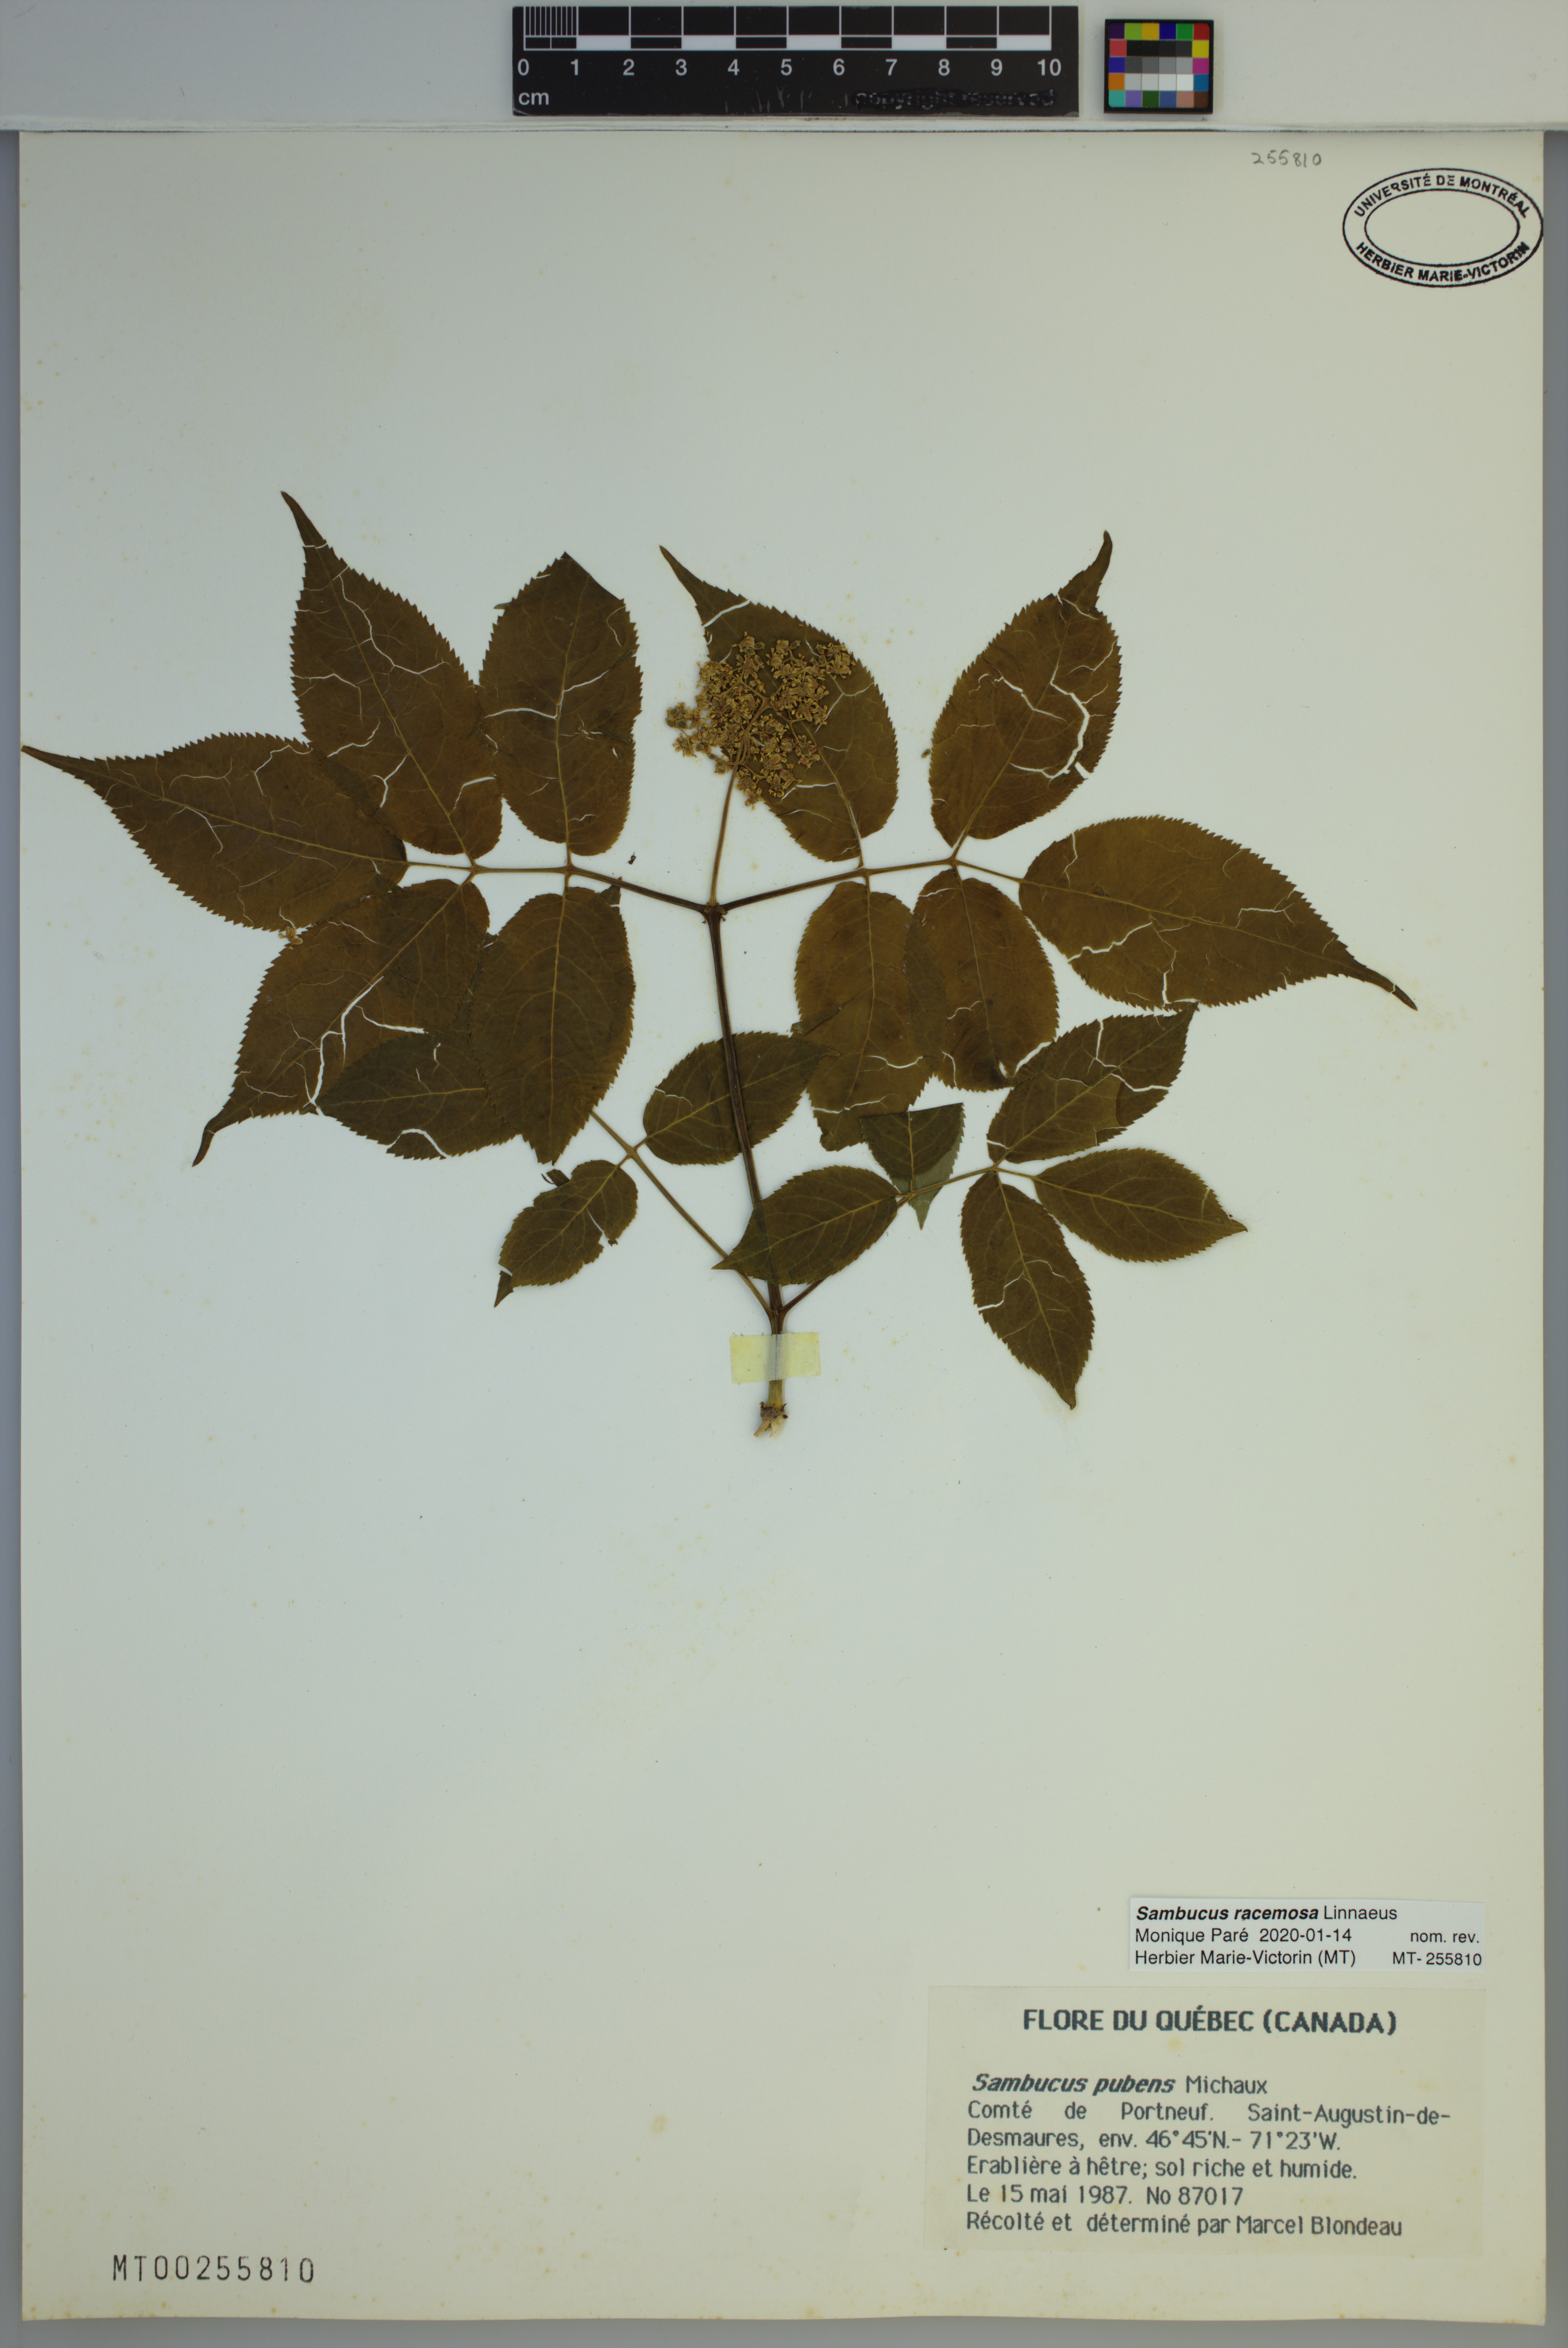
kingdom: Plantae
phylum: Tracheophyta
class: Magnoliopsida
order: Dipsacales
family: Viburnaceae
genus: Sambucus
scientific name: Sambucus racemosa
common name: Red-berried elder
